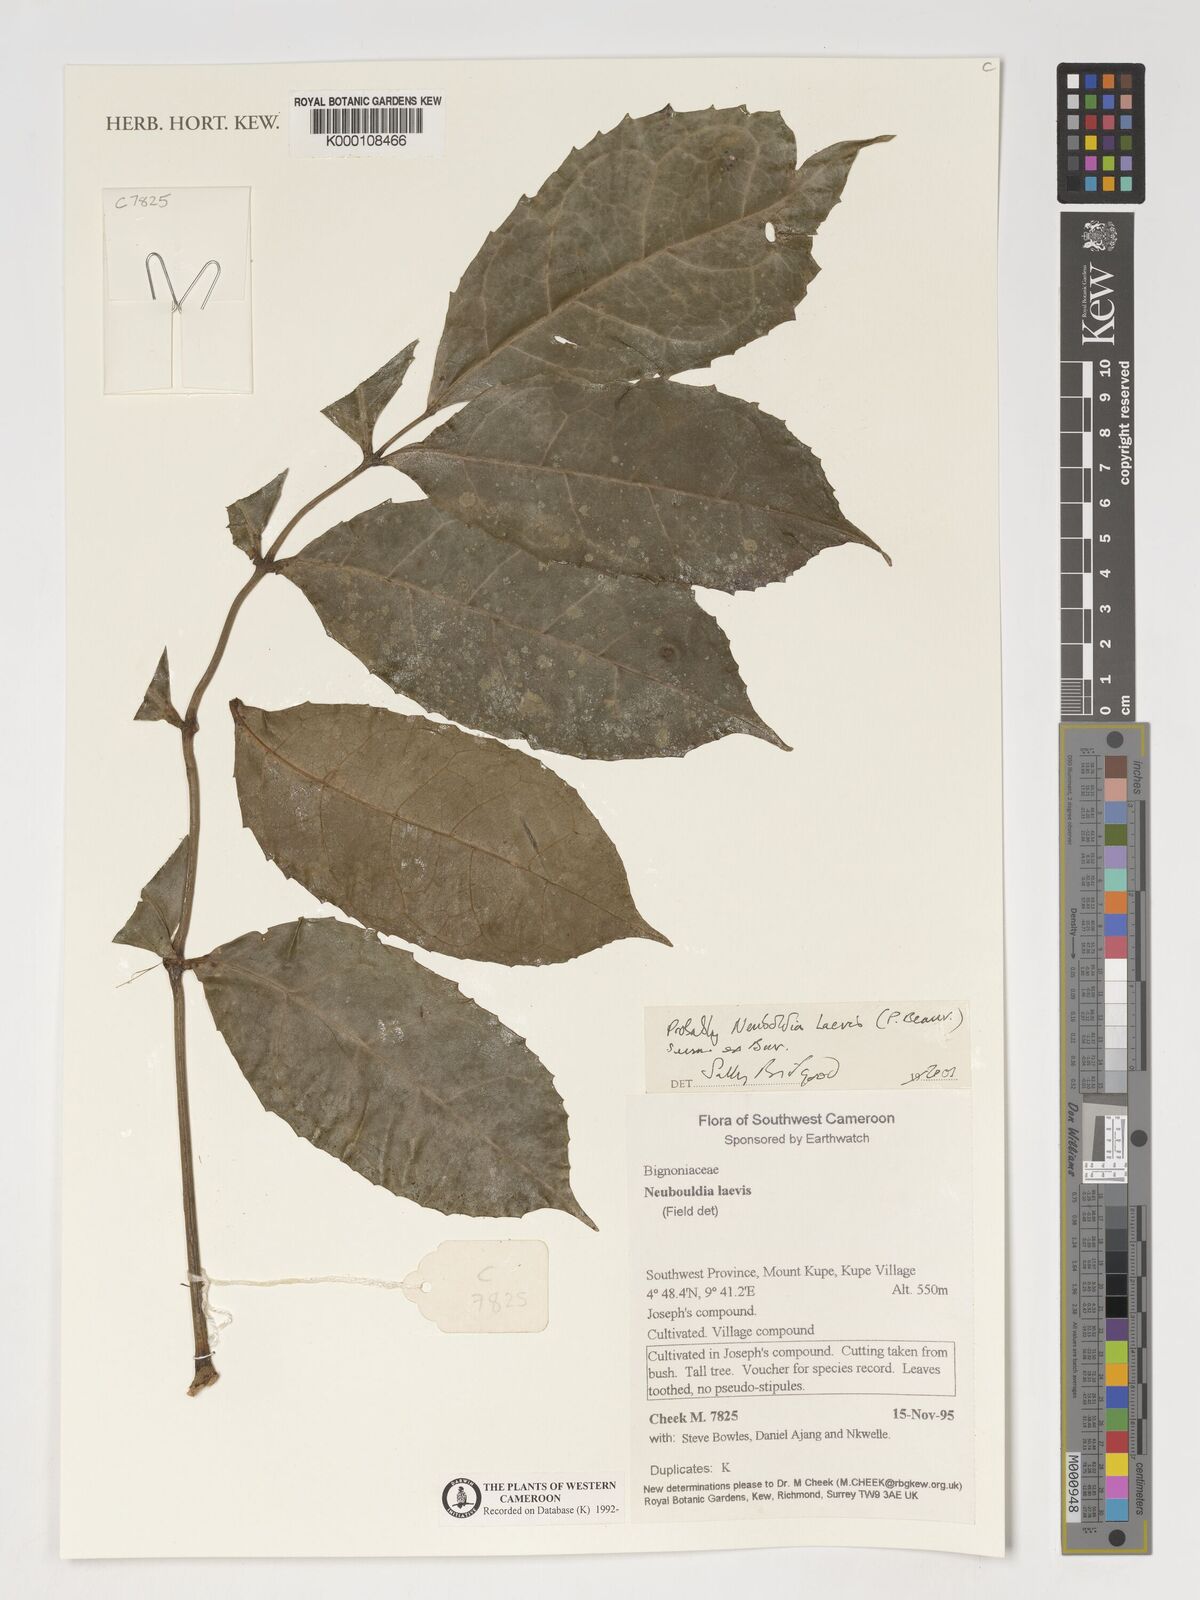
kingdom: Plantae
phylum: Tracheophyta
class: Magnoliopsida
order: Lamiales
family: Bignoniaceae
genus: Newbouldia
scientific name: Newbouldia laevis
